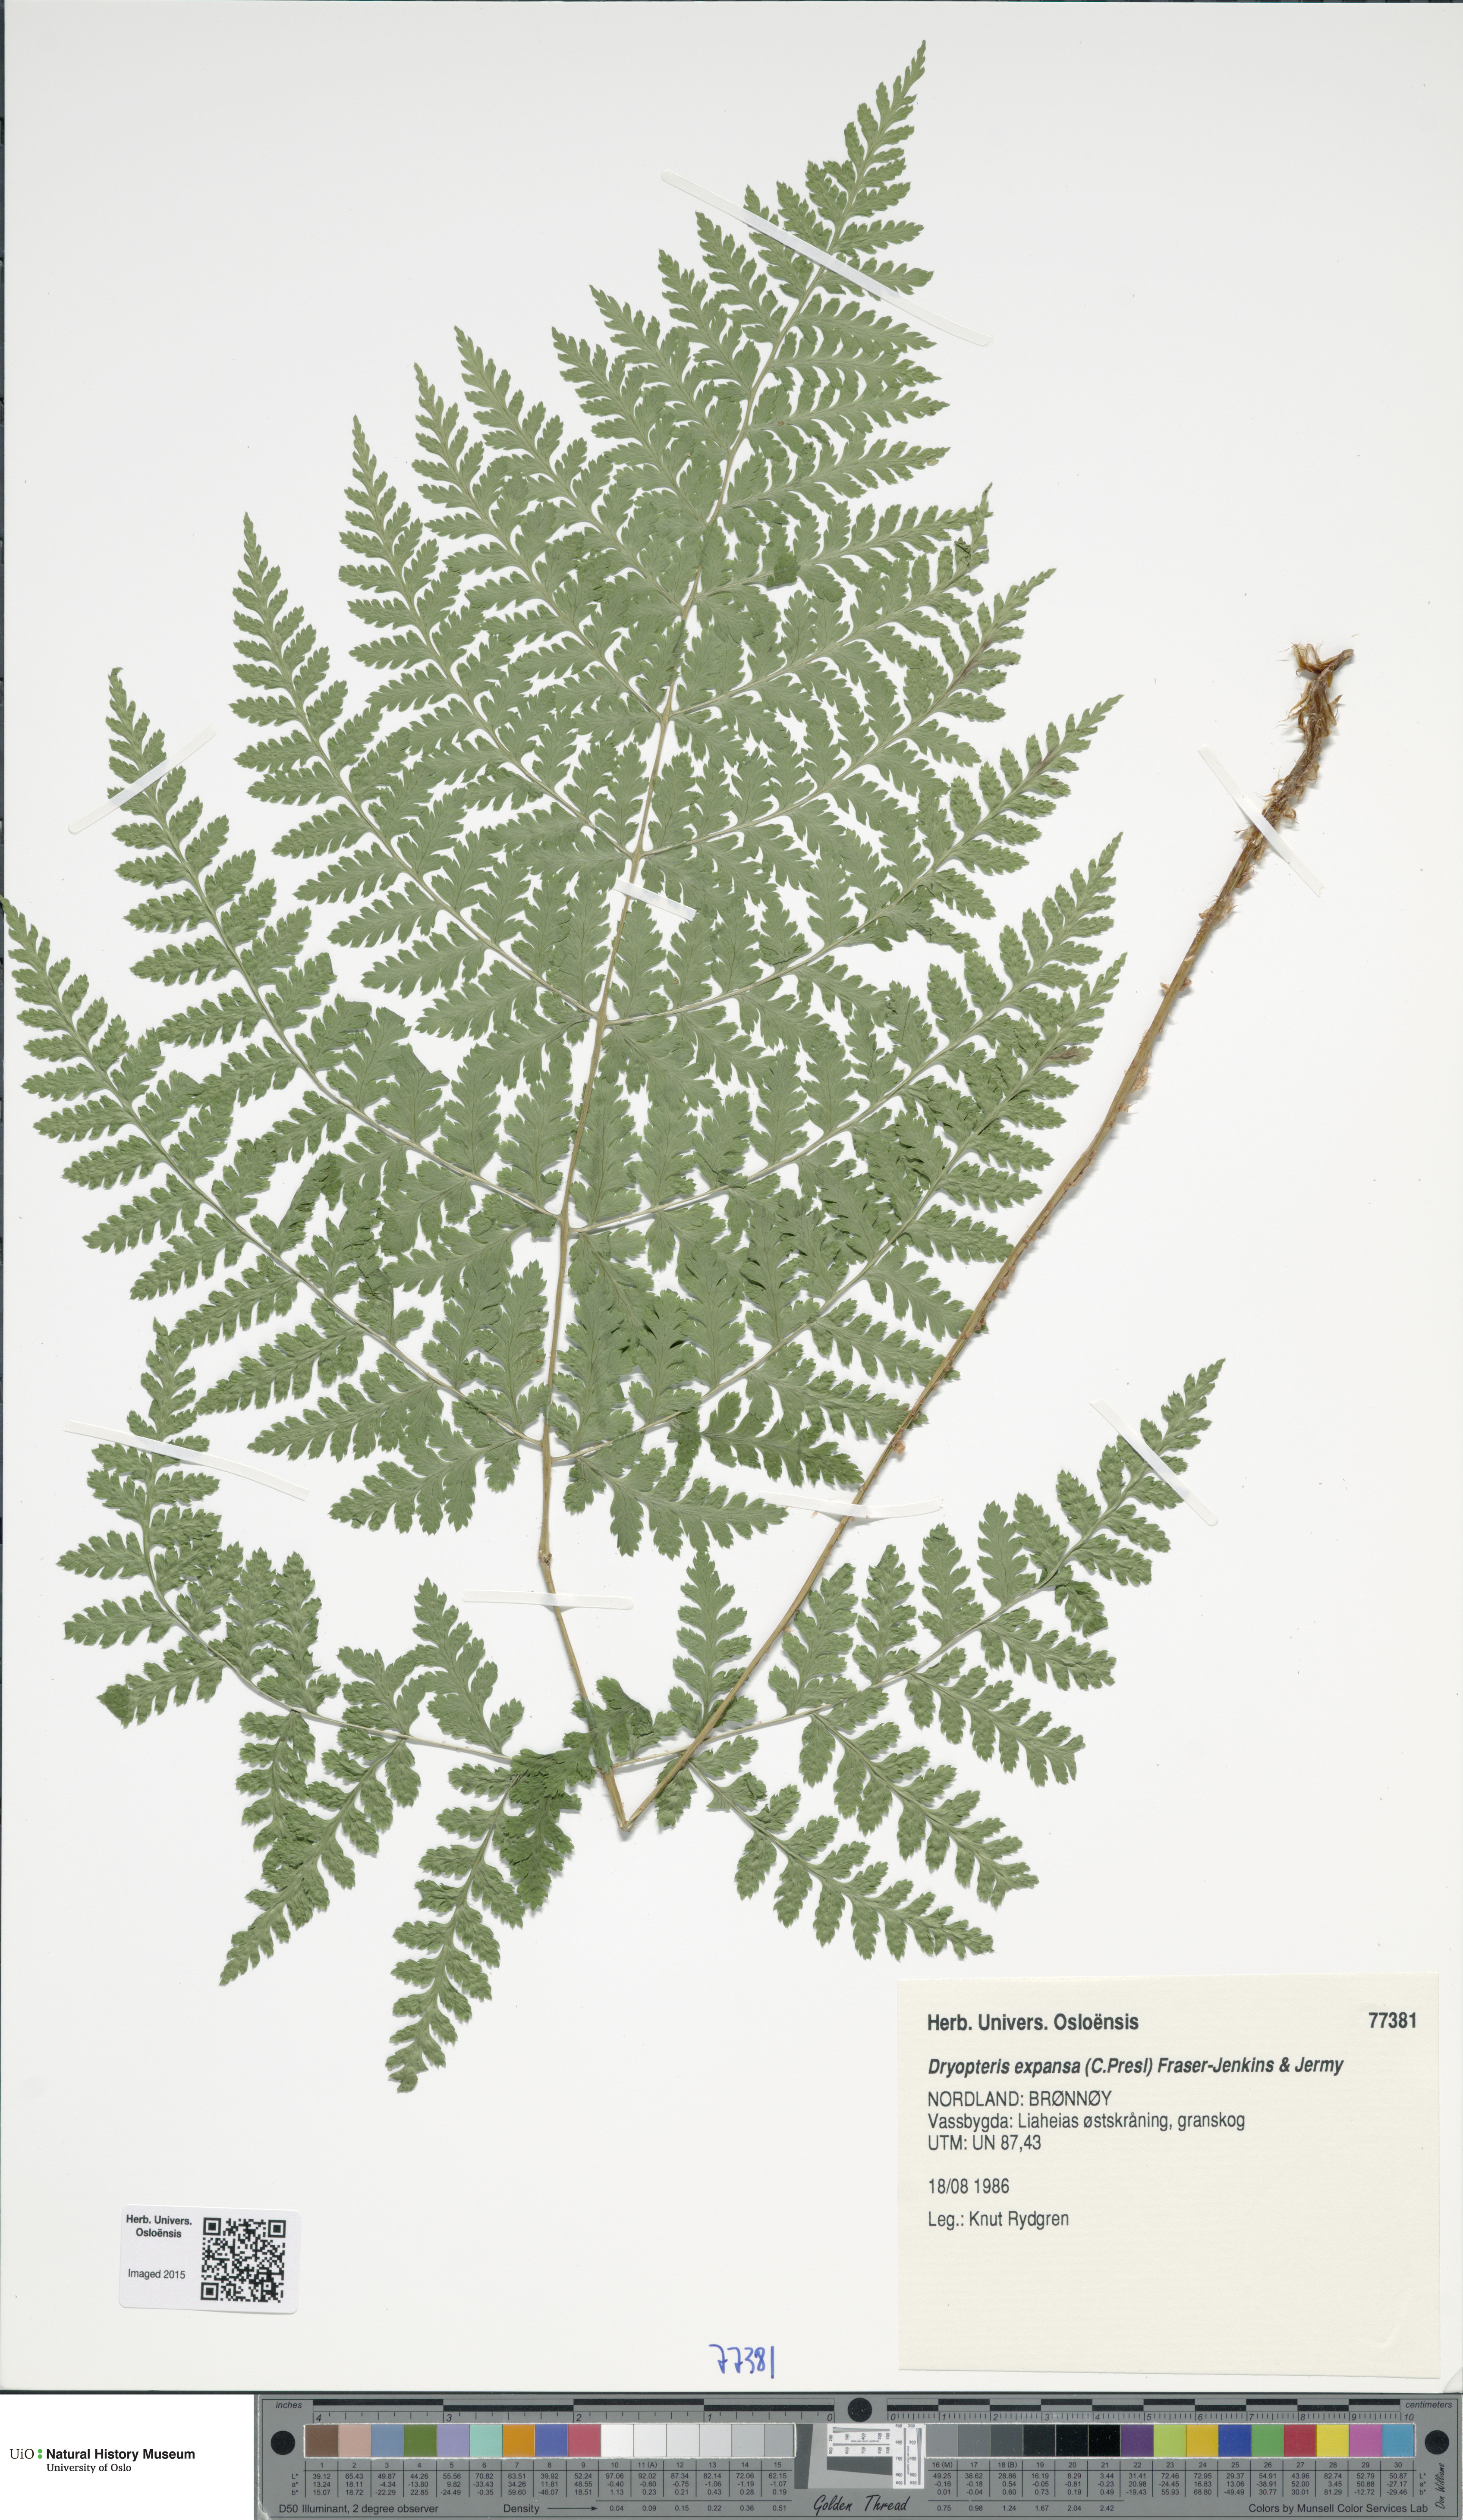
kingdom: Plantae
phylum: Tracheophyta
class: Polypodiopsida
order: Polypodiales
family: Dryopteridaceae
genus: Dryopteris
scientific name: Dryopteris expansa
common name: Northern buckler fern
